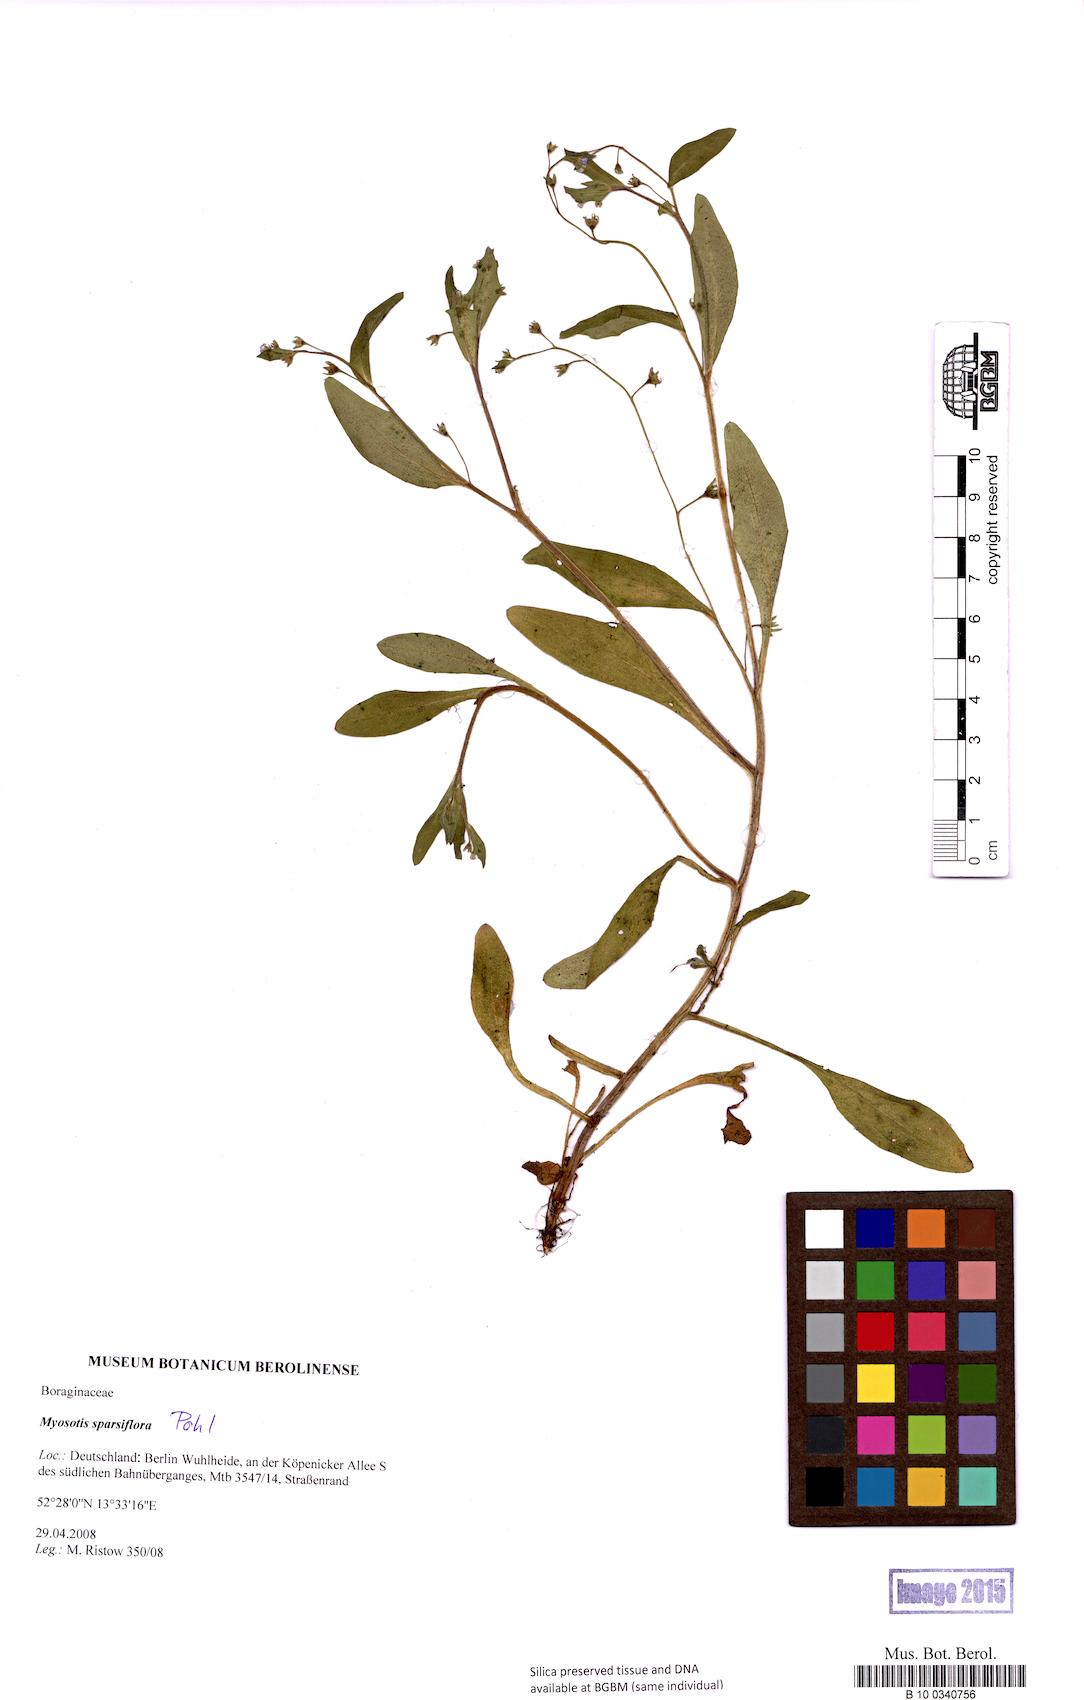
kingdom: Plantae
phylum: Tracheophyta
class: Magnoliopsida
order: Boraginales
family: Boraginaceae
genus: Myosotis
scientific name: Myosotis sparsiflora
